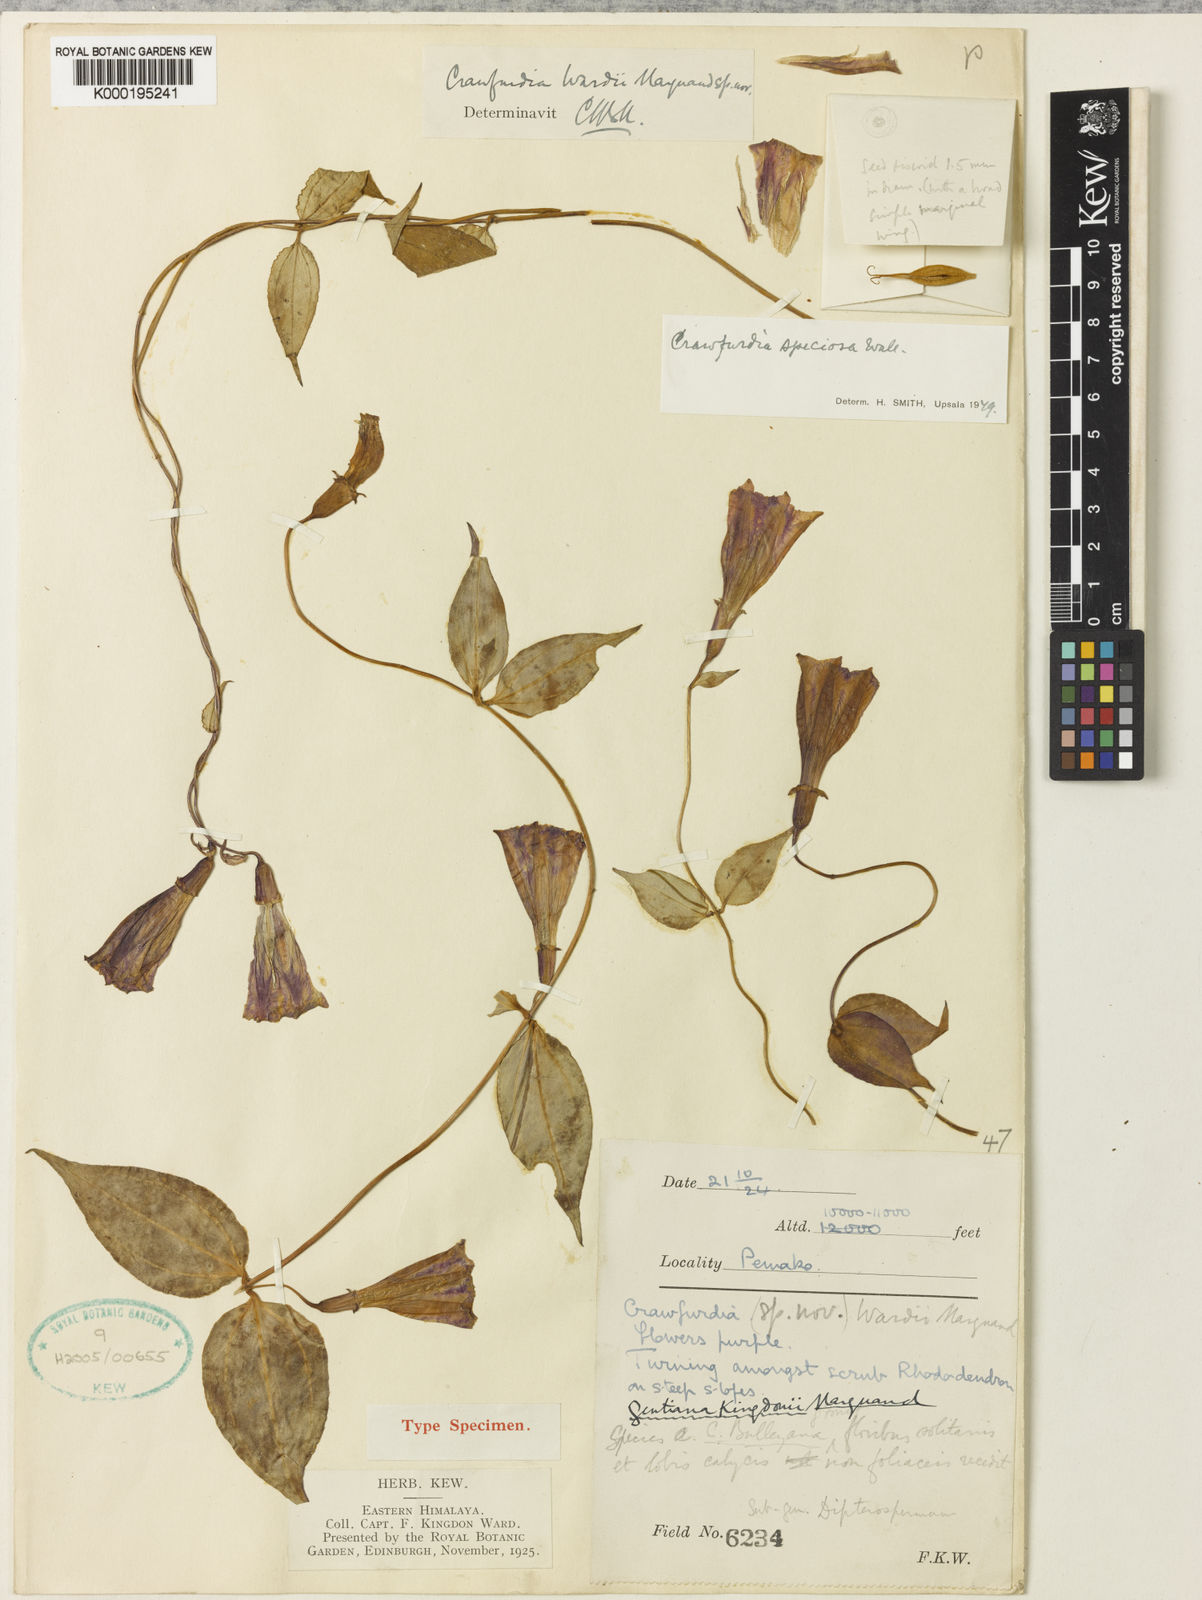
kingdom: Plantae
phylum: Tracheophyta
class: Magnoliopsida
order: Gentianales
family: Gentianaceae
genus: Crawfurdia
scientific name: Crawfurdia speciosa
